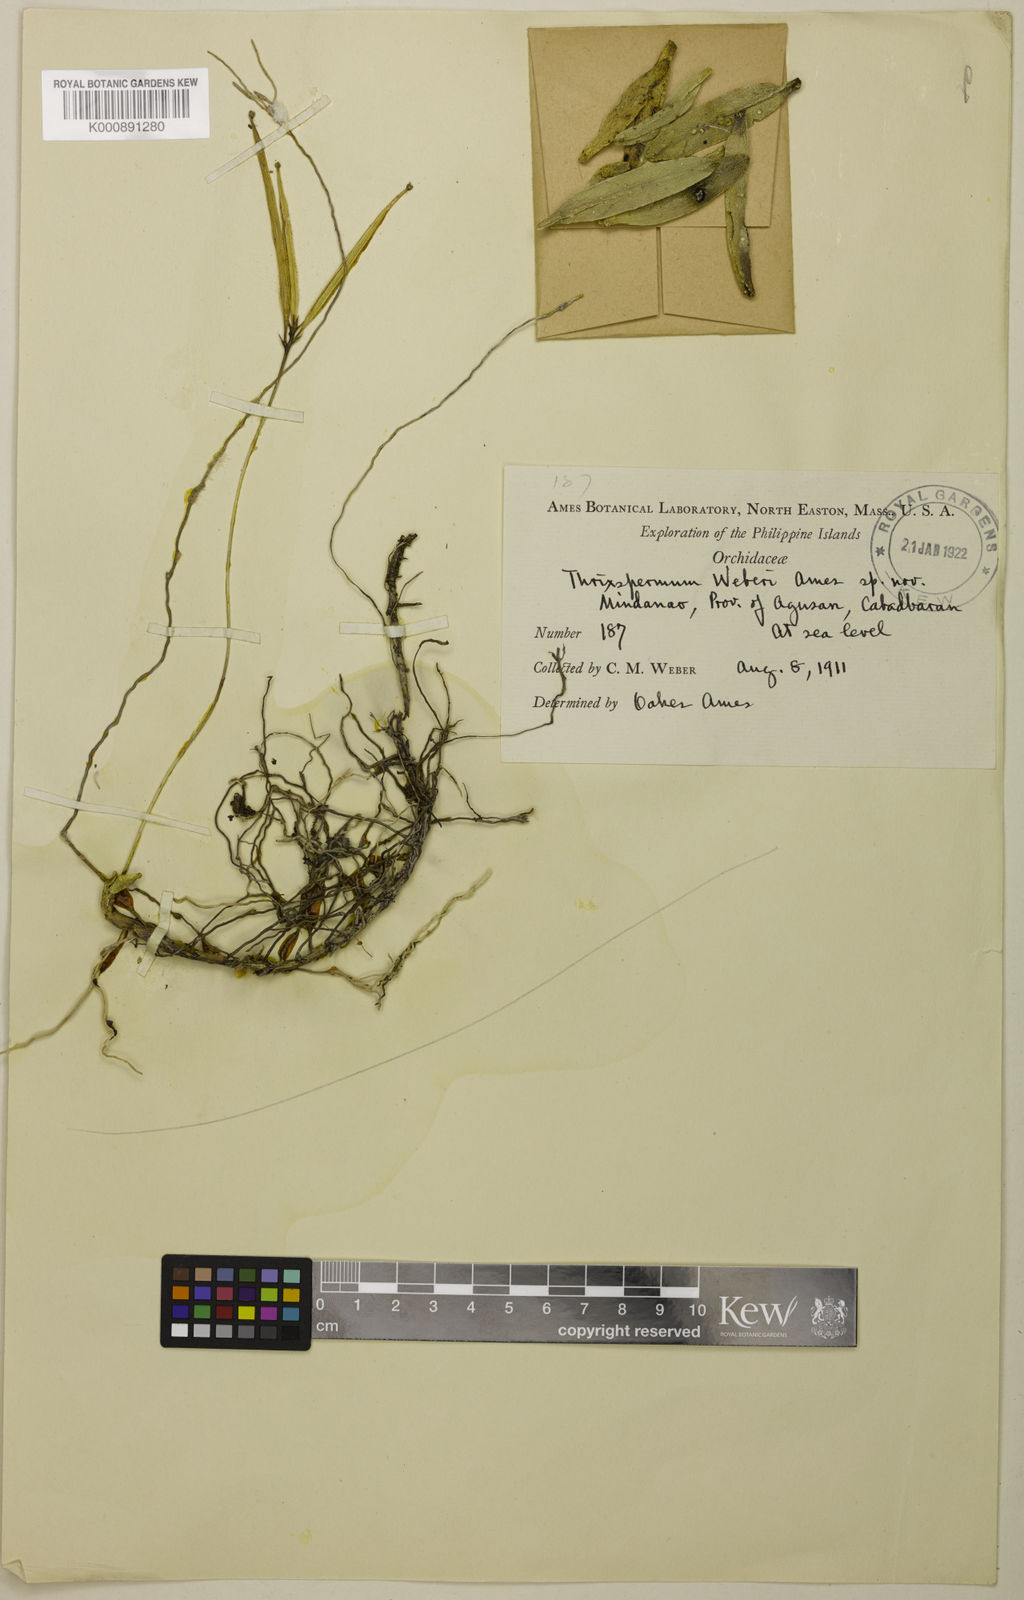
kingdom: Plantae
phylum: Tracheophyta
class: Liliopsida
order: Asparagales
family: Orchidaceae
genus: Thrixspermum
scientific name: Thrixspermum weberi
